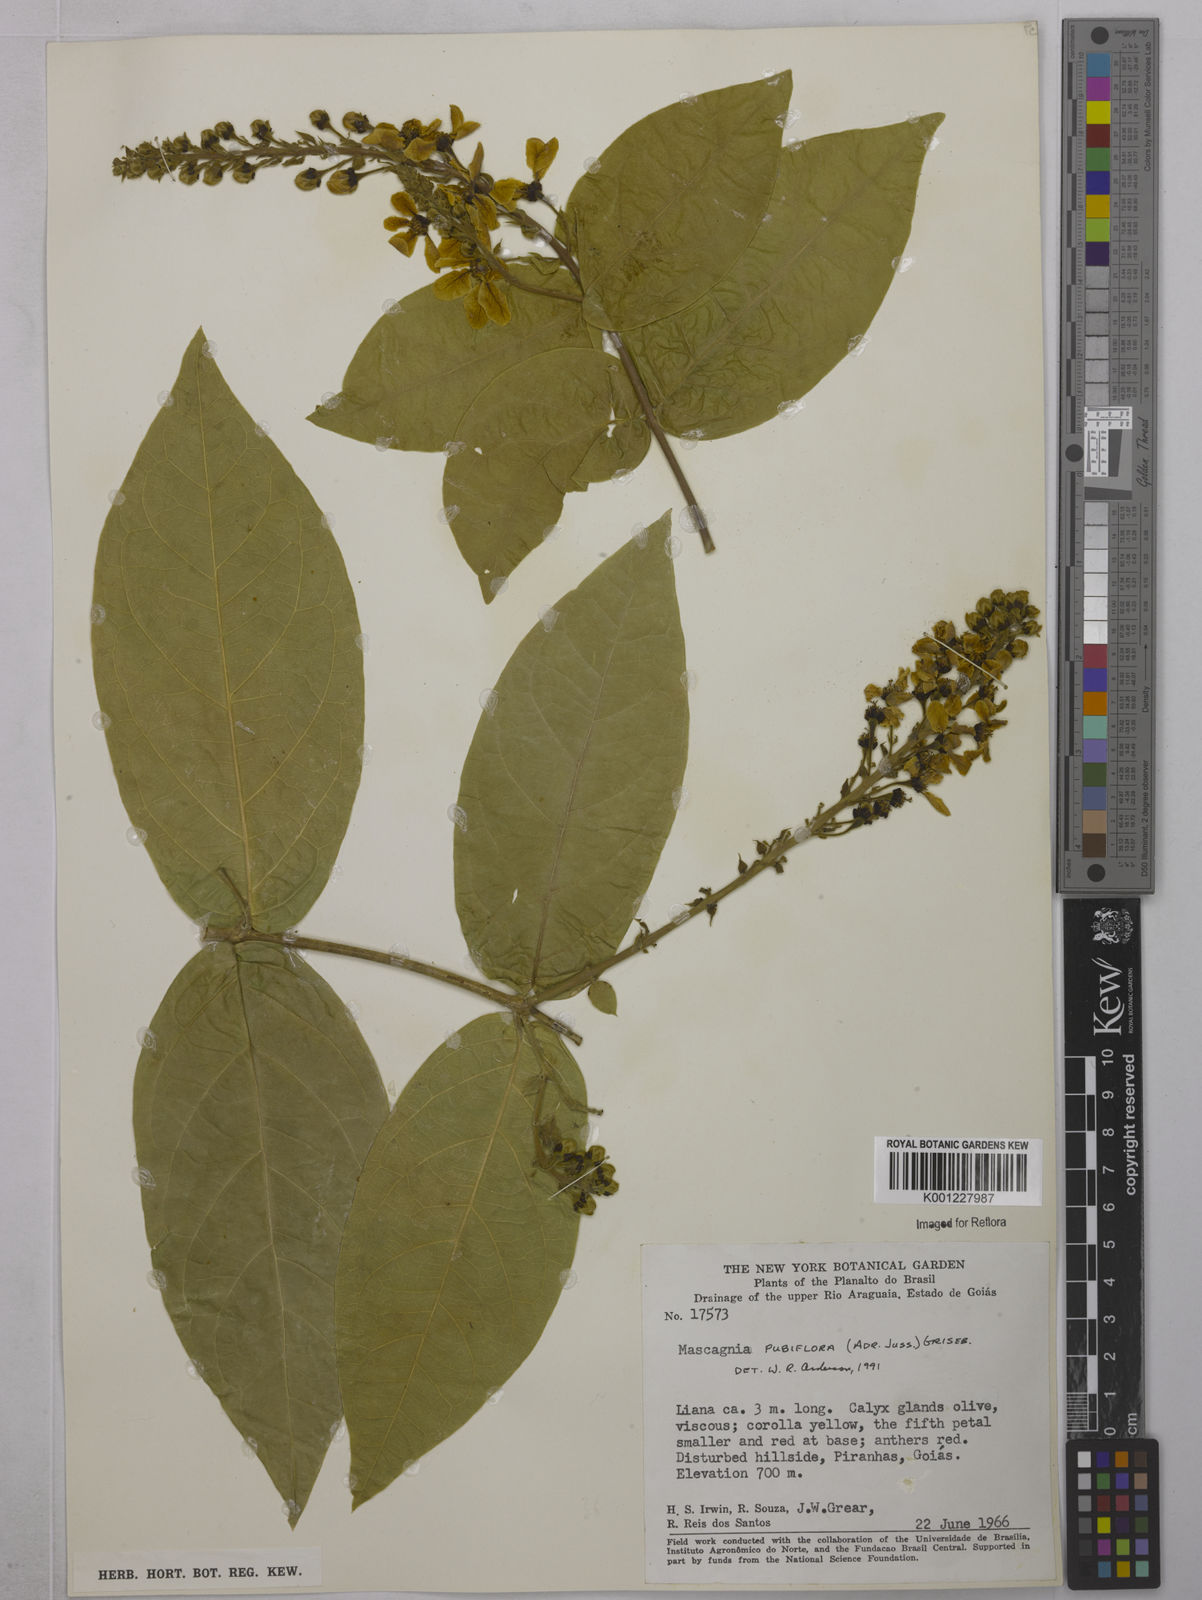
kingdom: Plantae
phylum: Tracheophyta
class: Magnoliopsida
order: Malpighiales
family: Malpighiaceae
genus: Amorimia
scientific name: Amorimia pubiflora
